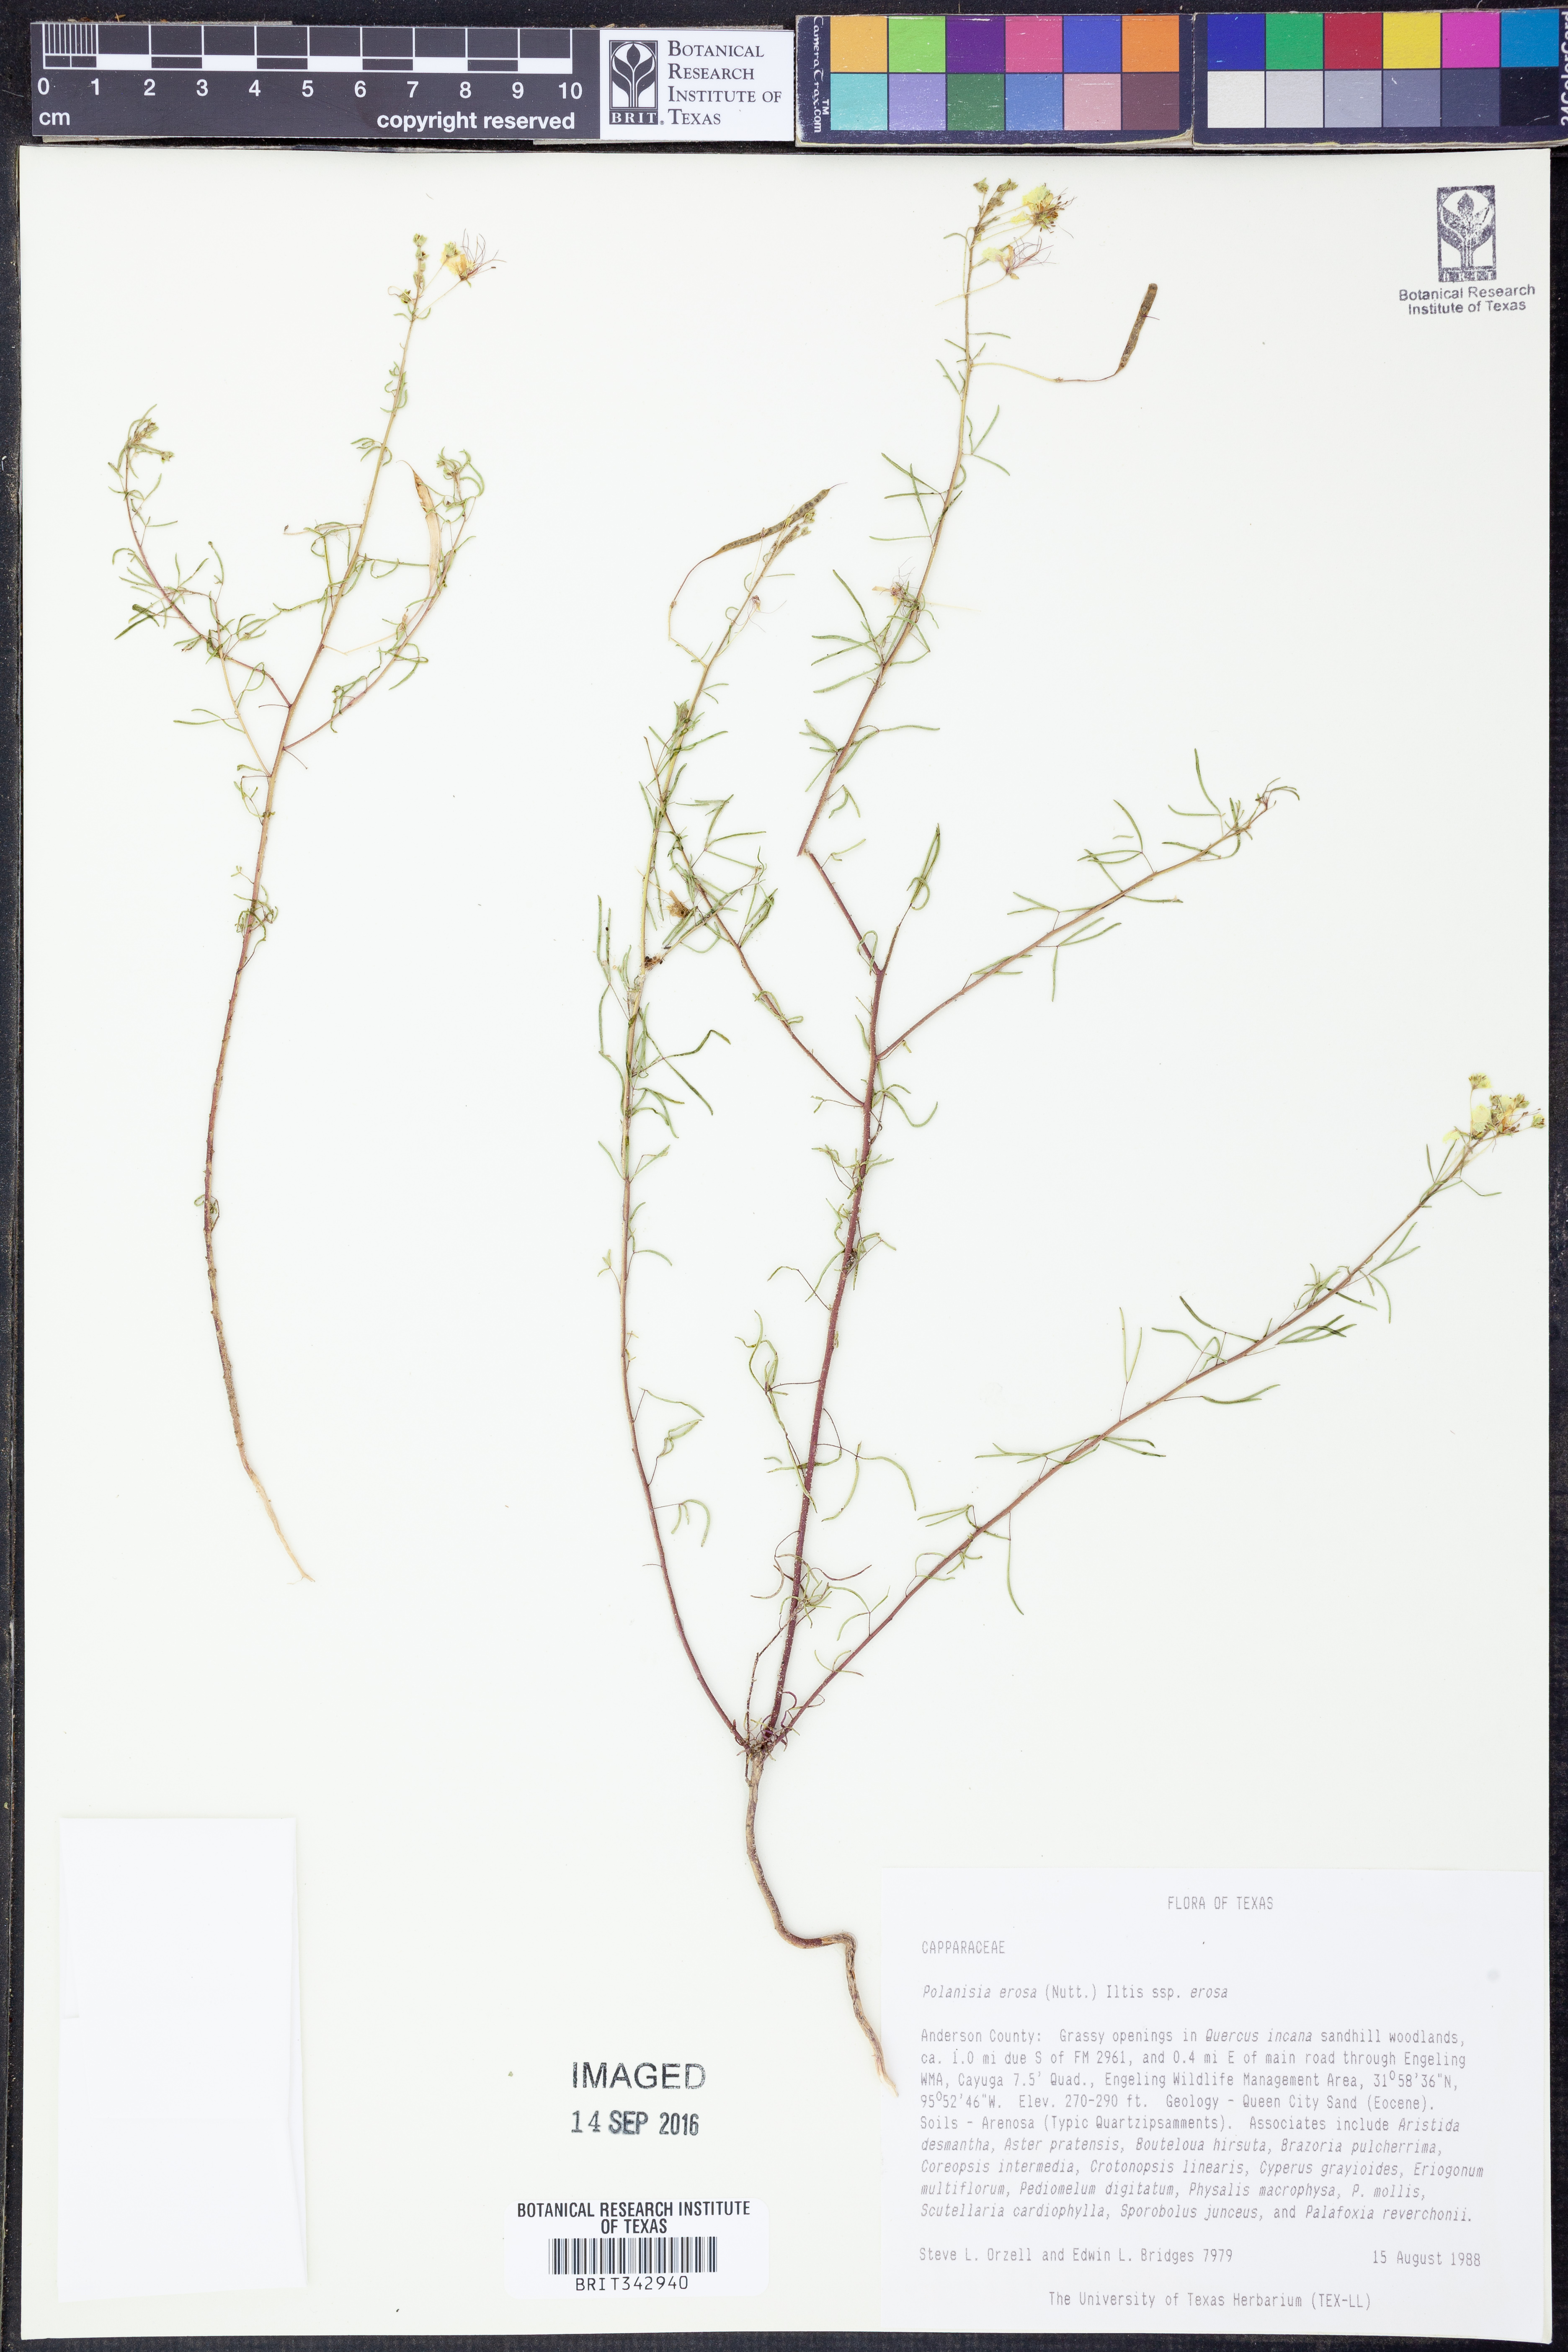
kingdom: Plantae
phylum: Tracheophyta
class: Magnoliopsida
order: Brassicales
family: Cleomaceae
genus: Polanisia
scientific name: Polanisia erosa
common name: Large clammyweed
